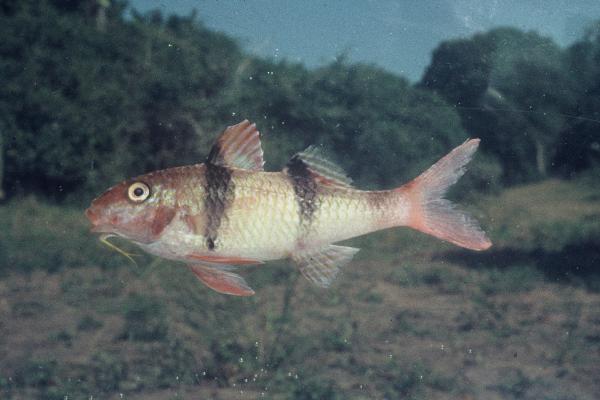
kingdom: Animalia
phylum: Chordata
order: Perciformes
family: Mullidae
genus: Parupeneus
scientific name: Parupeneus trifasciatus
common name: Doublebar goatfish
